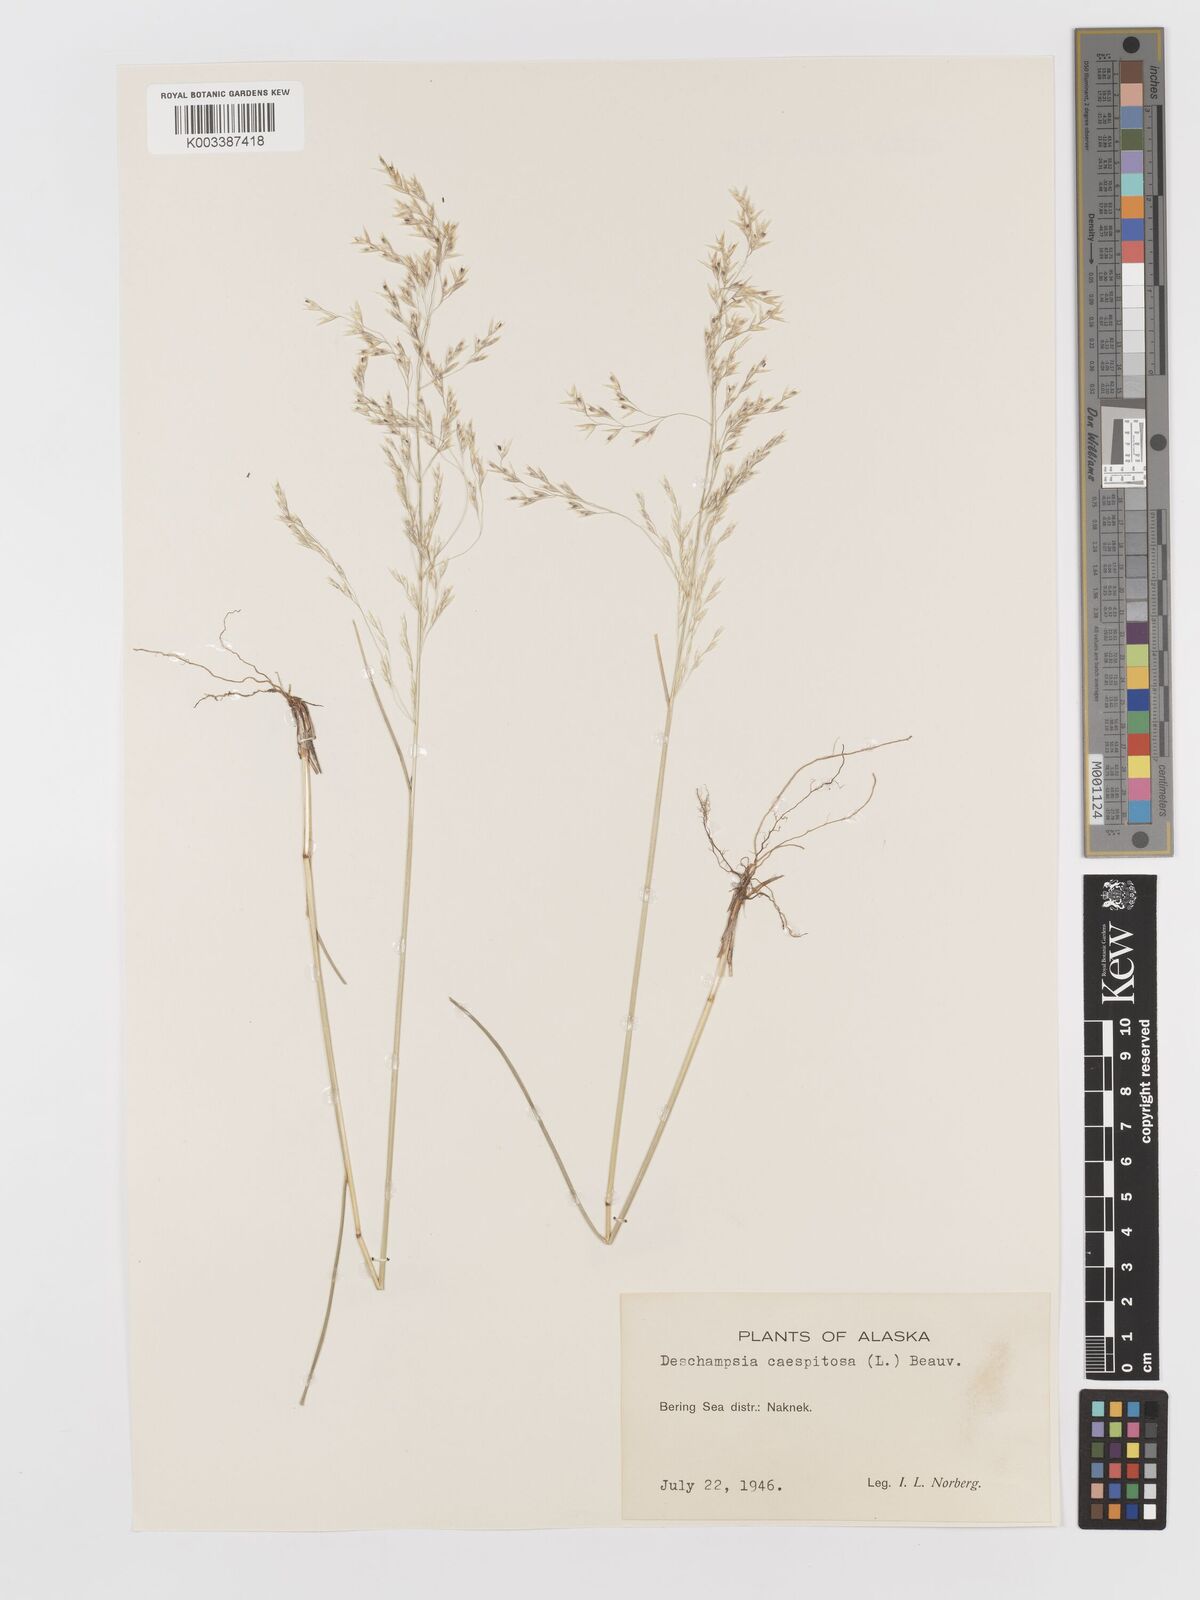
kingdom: Plantae
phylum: Tracheophyta
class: Liliopsida
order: Poales
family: Poaceae
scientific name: Poaceae
